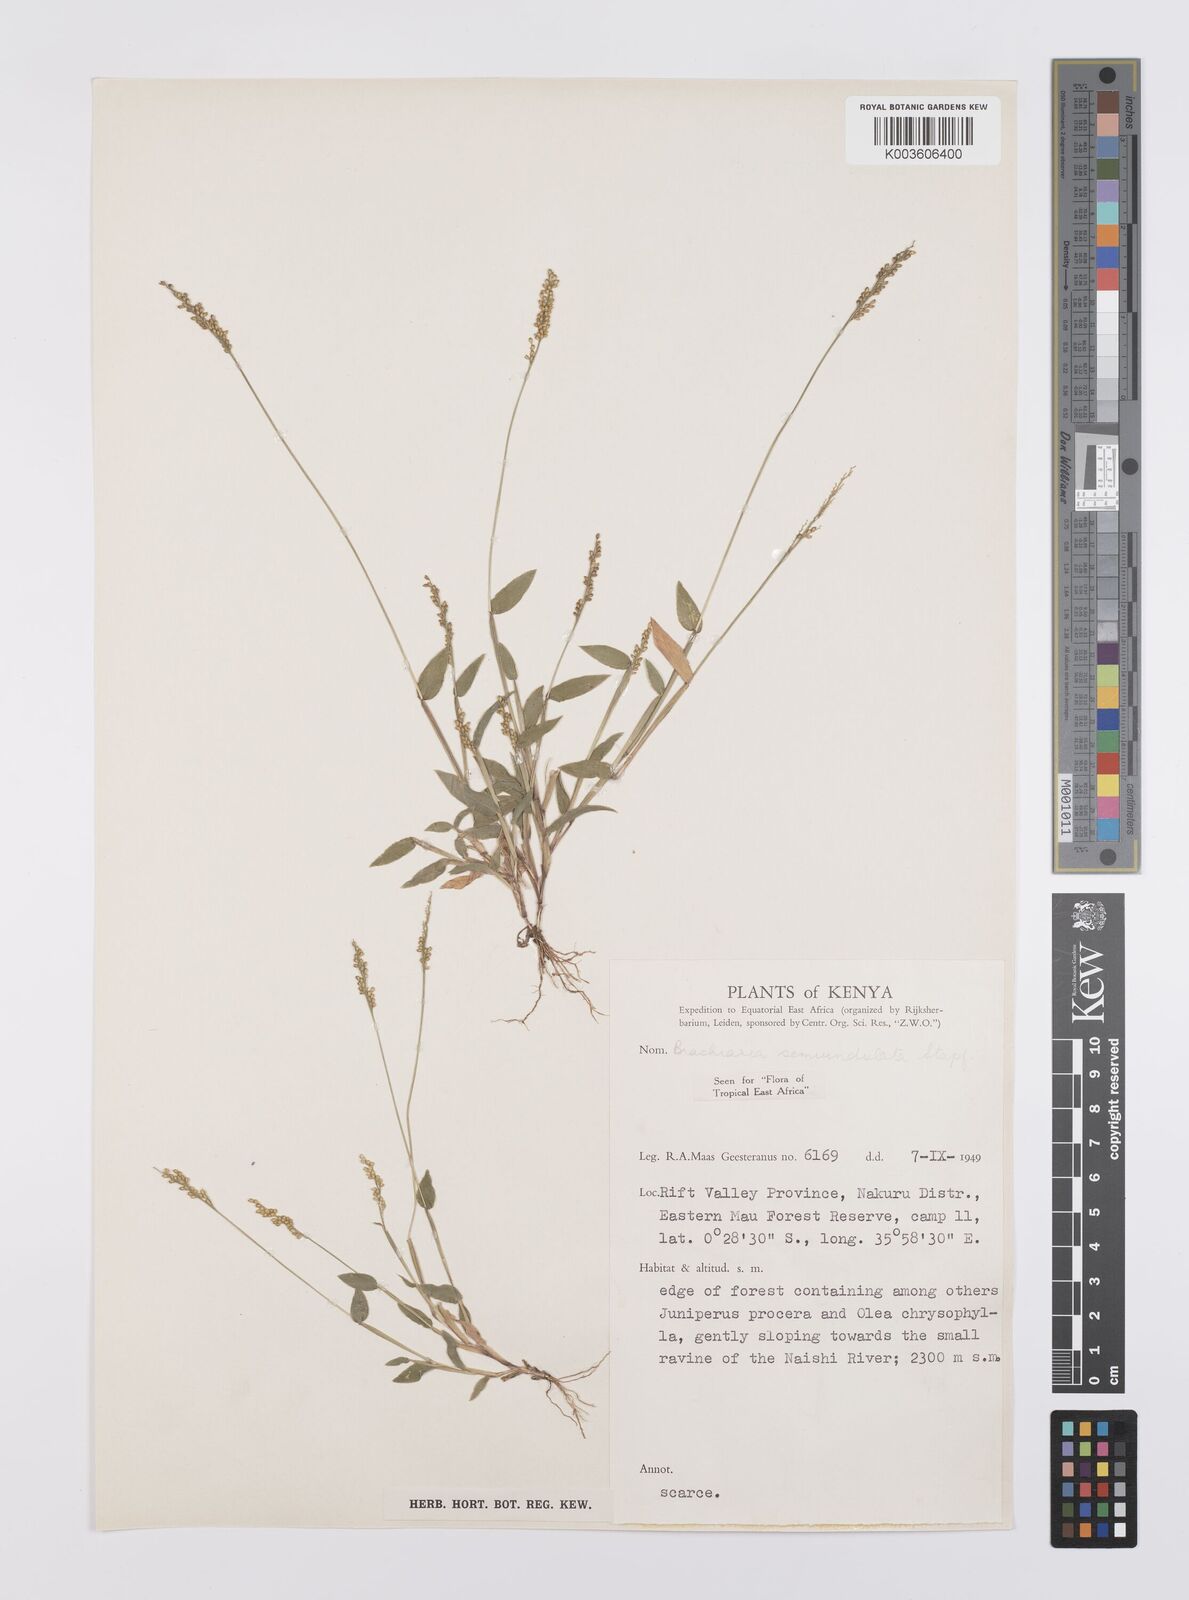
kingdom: Plantae
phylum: Tracheophyta
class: Liliopsida
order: Poales
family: Poaceae
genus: Urochloa
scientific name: Urochloa semiundulata
